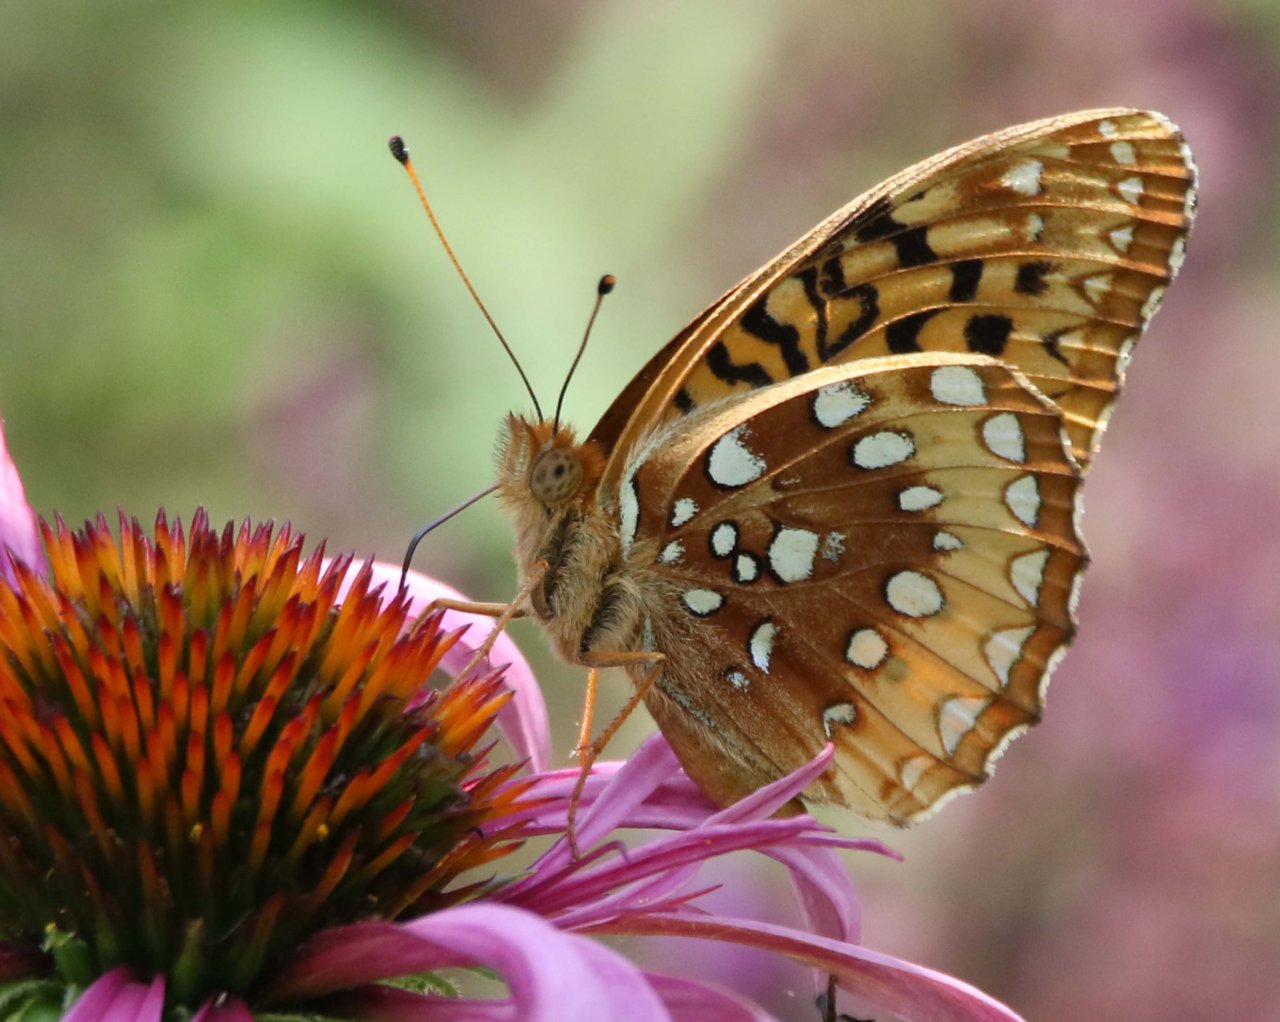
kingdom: Animalia
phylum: Arthropoda
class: Insecta
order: Lepidoptera
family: Nymphalidae
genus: Speyeria
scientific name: Speyeria cybele
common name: Great Spangled Fritillary
